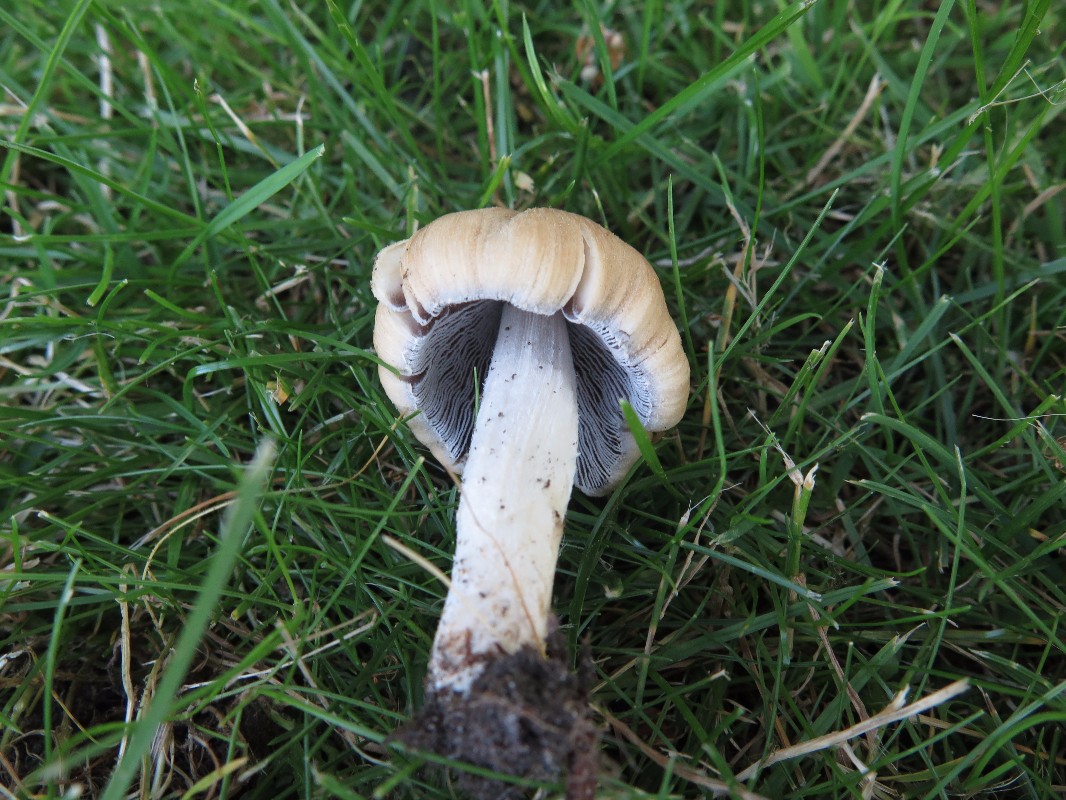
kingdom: Fungi
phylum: Basidiomycota
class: Agaricomycetes
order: Agaricales
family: Psathyrellaceae
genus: Coprinellus
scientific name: Coprinellus micaceus
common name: glimmer-blækhat
